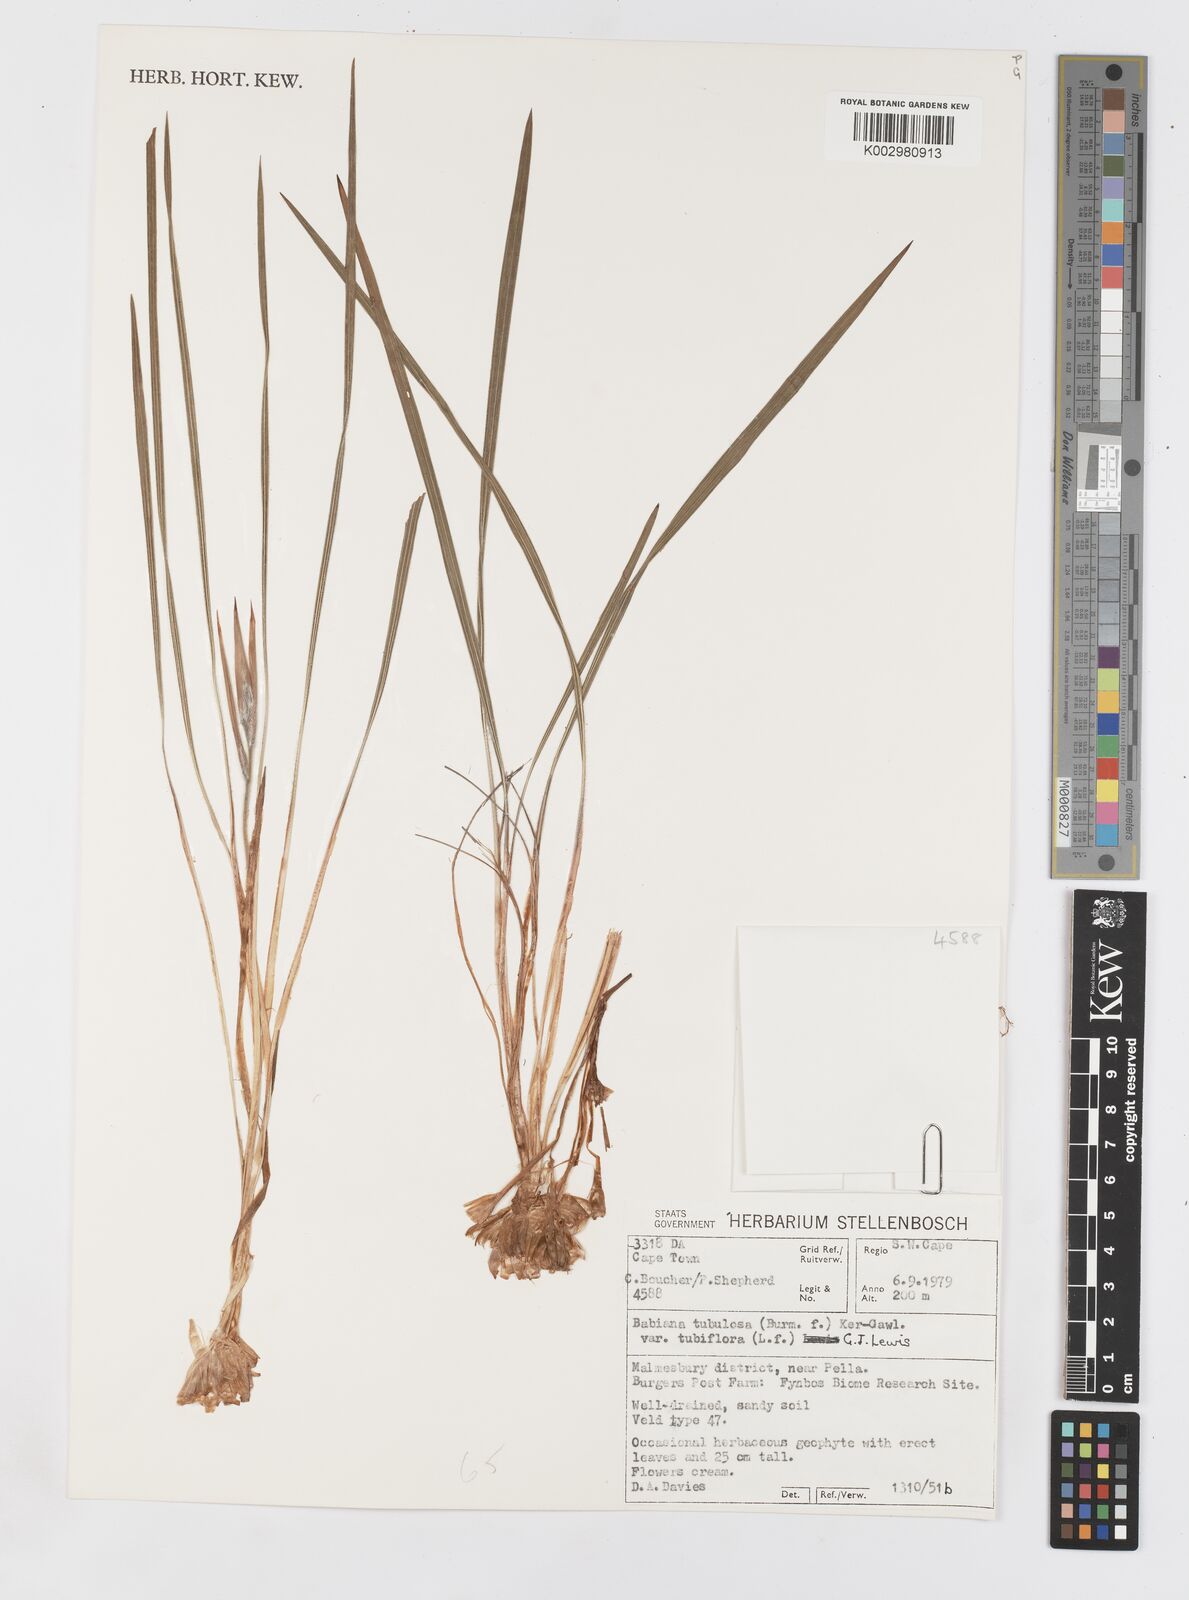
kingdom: Plantae
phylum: Tracheophyta
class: Liliopsida
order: Asparagales
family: Iridaceae
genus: Babiana
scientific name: Babiana tubiflora
